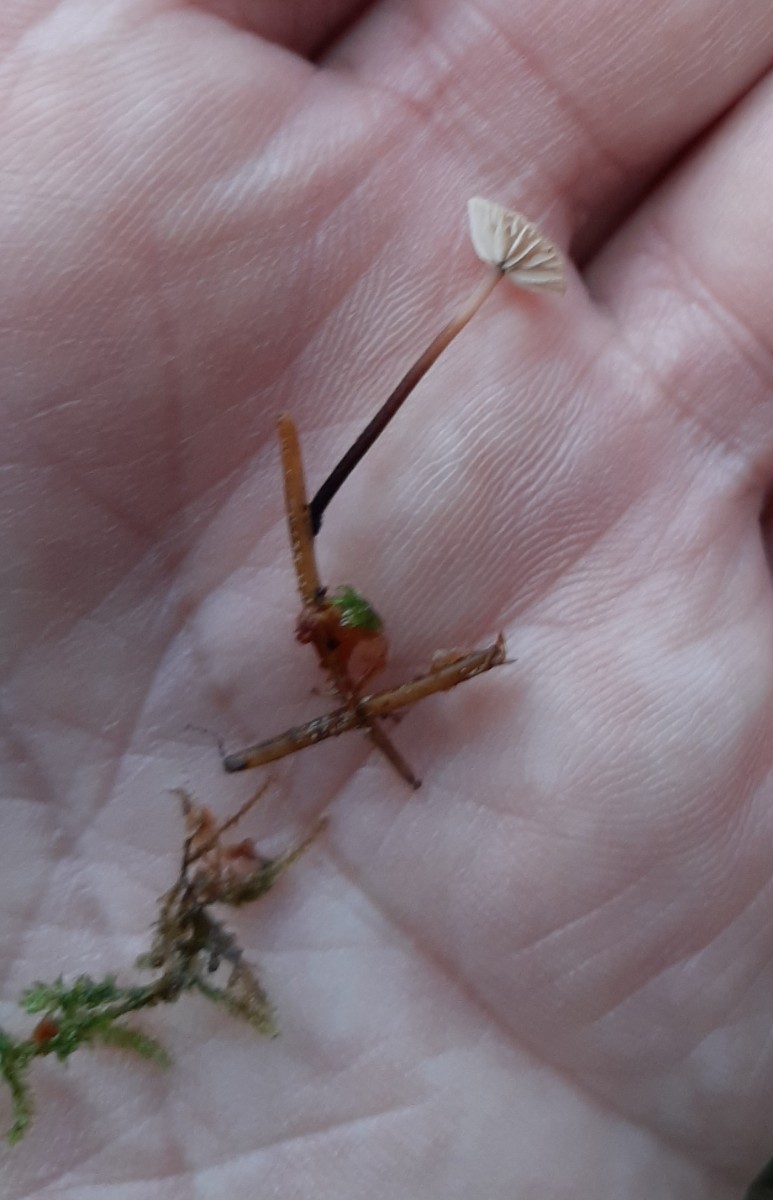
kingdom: Fungi
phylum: Basidiomycota
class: Agaricomycetes
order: Agaricales
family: Omphalotaceae
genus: Paragymnopus
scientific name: Paragymnopus perforans
